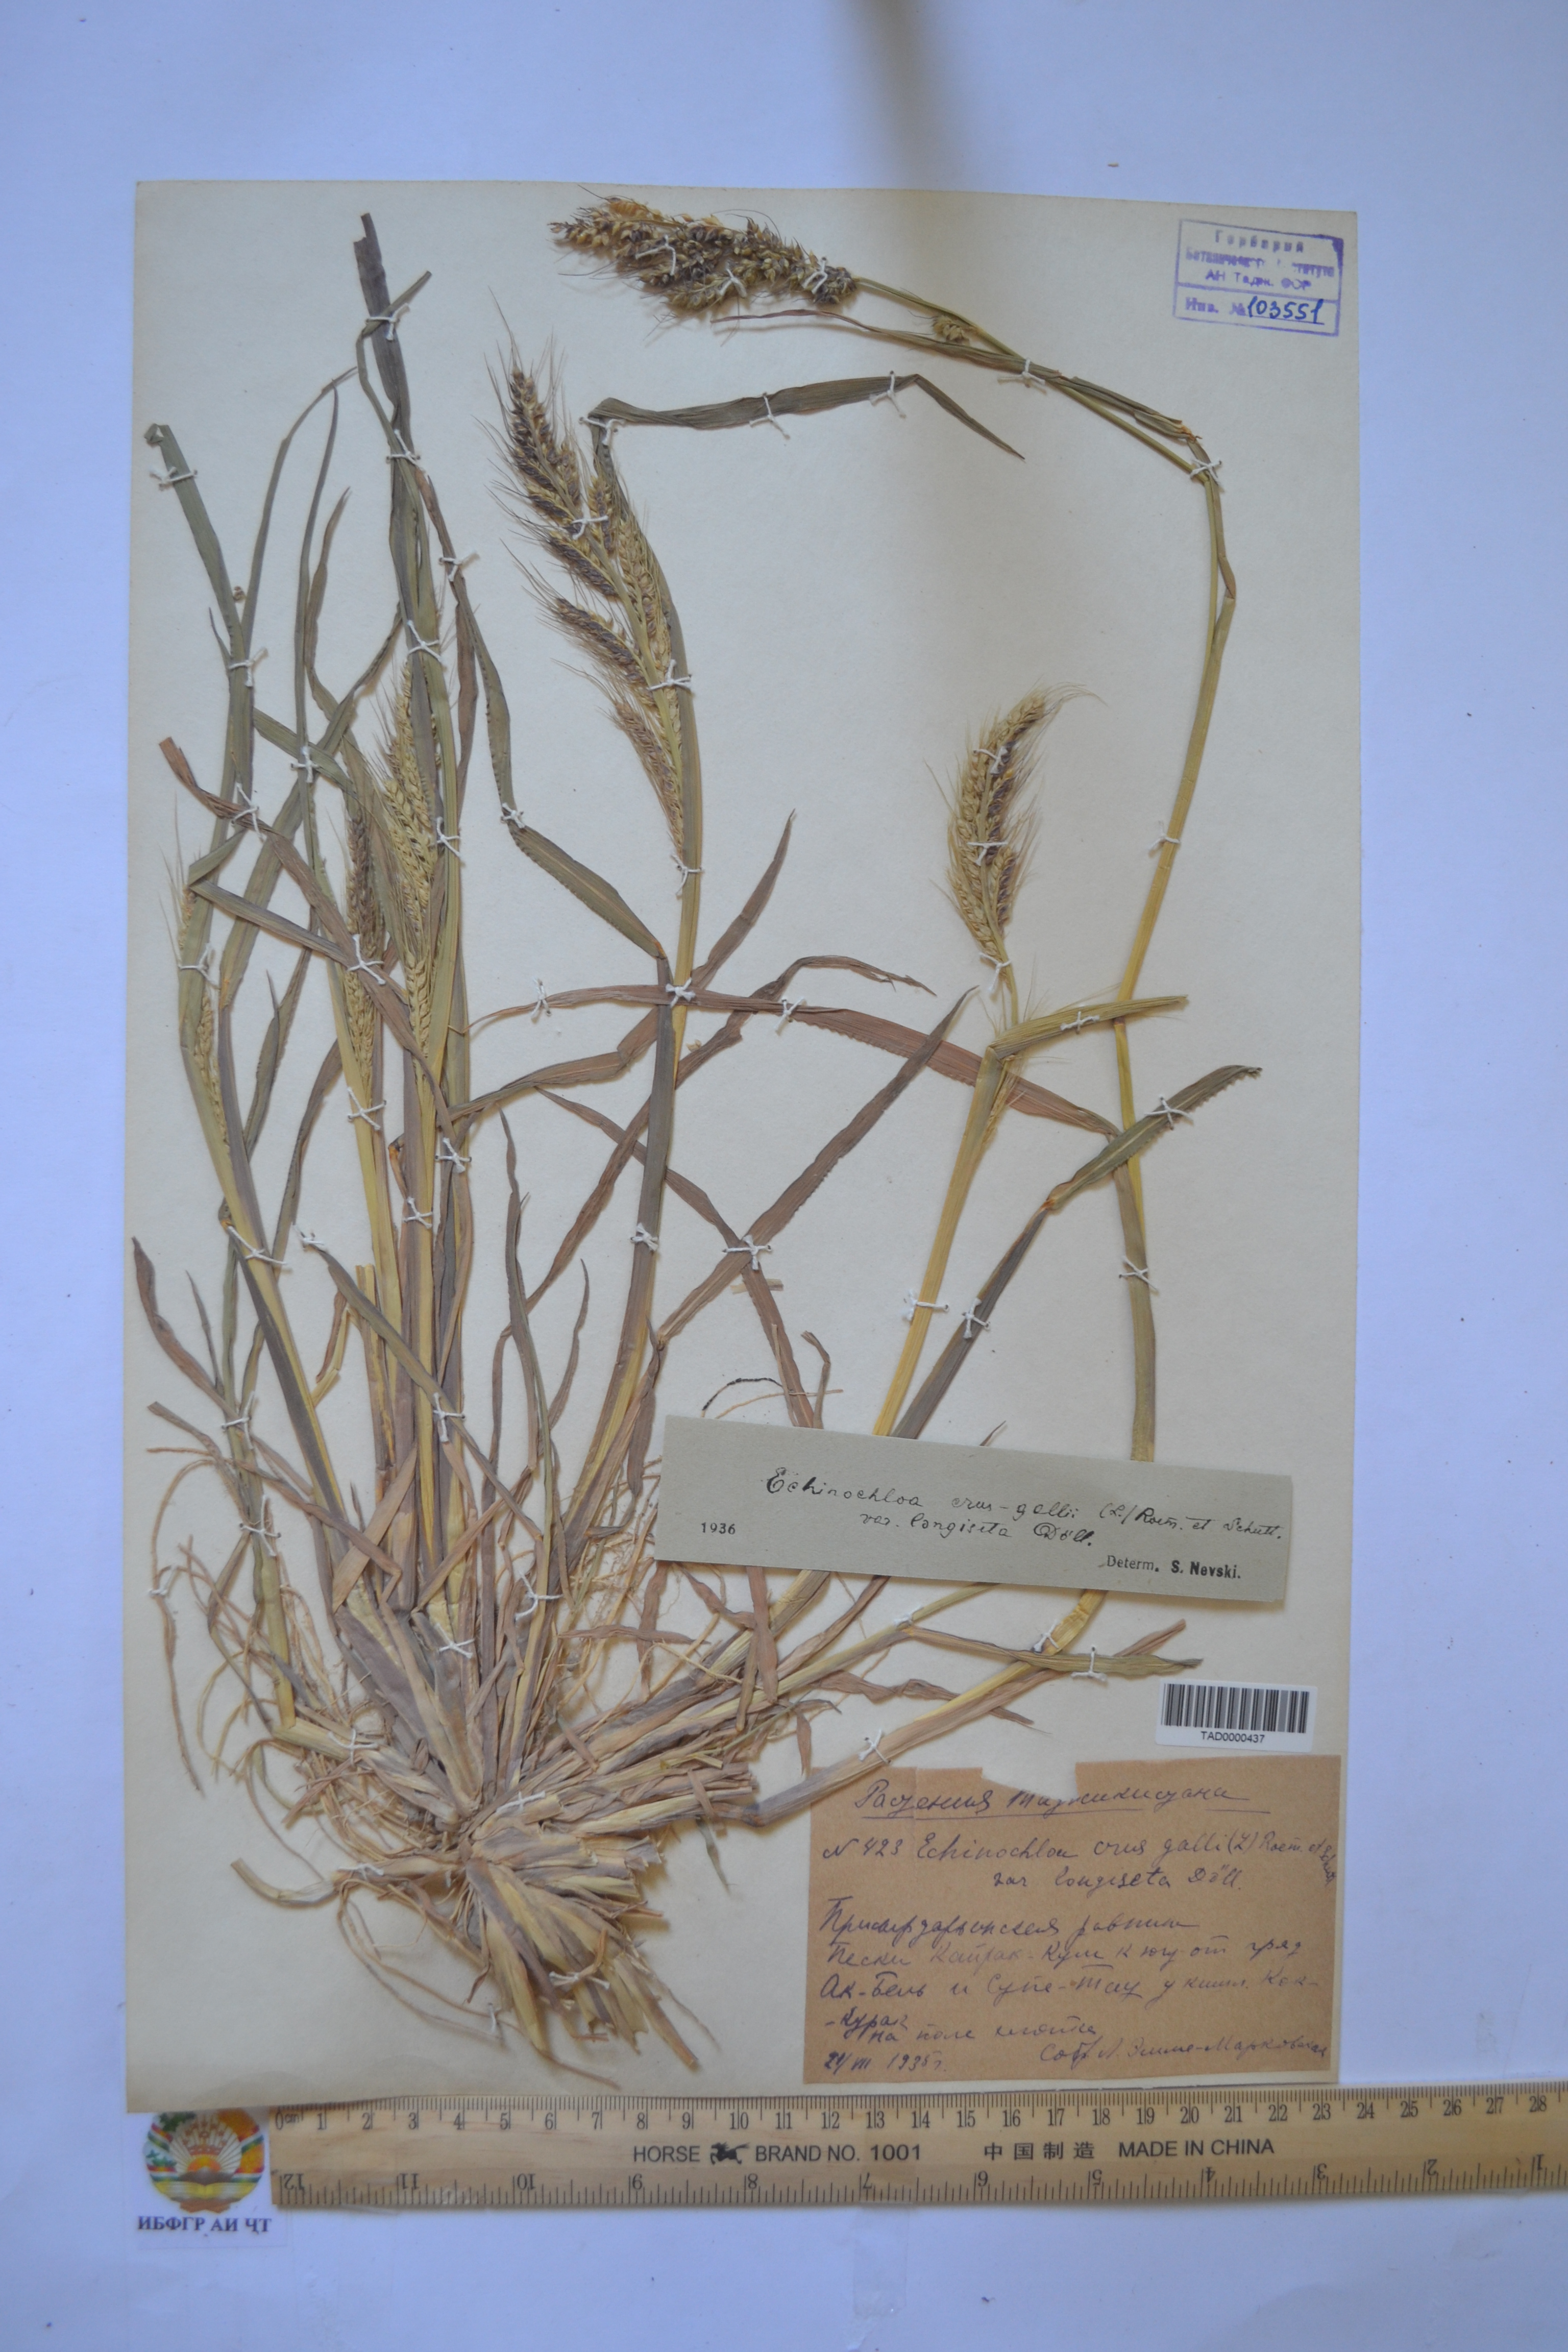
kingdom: Plantae
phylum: Tracheophyta
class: Liliopsida
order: Poales
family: Poaceae
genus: Echinochloa
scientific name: Echinochloa crus-galli
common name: Cockspur
